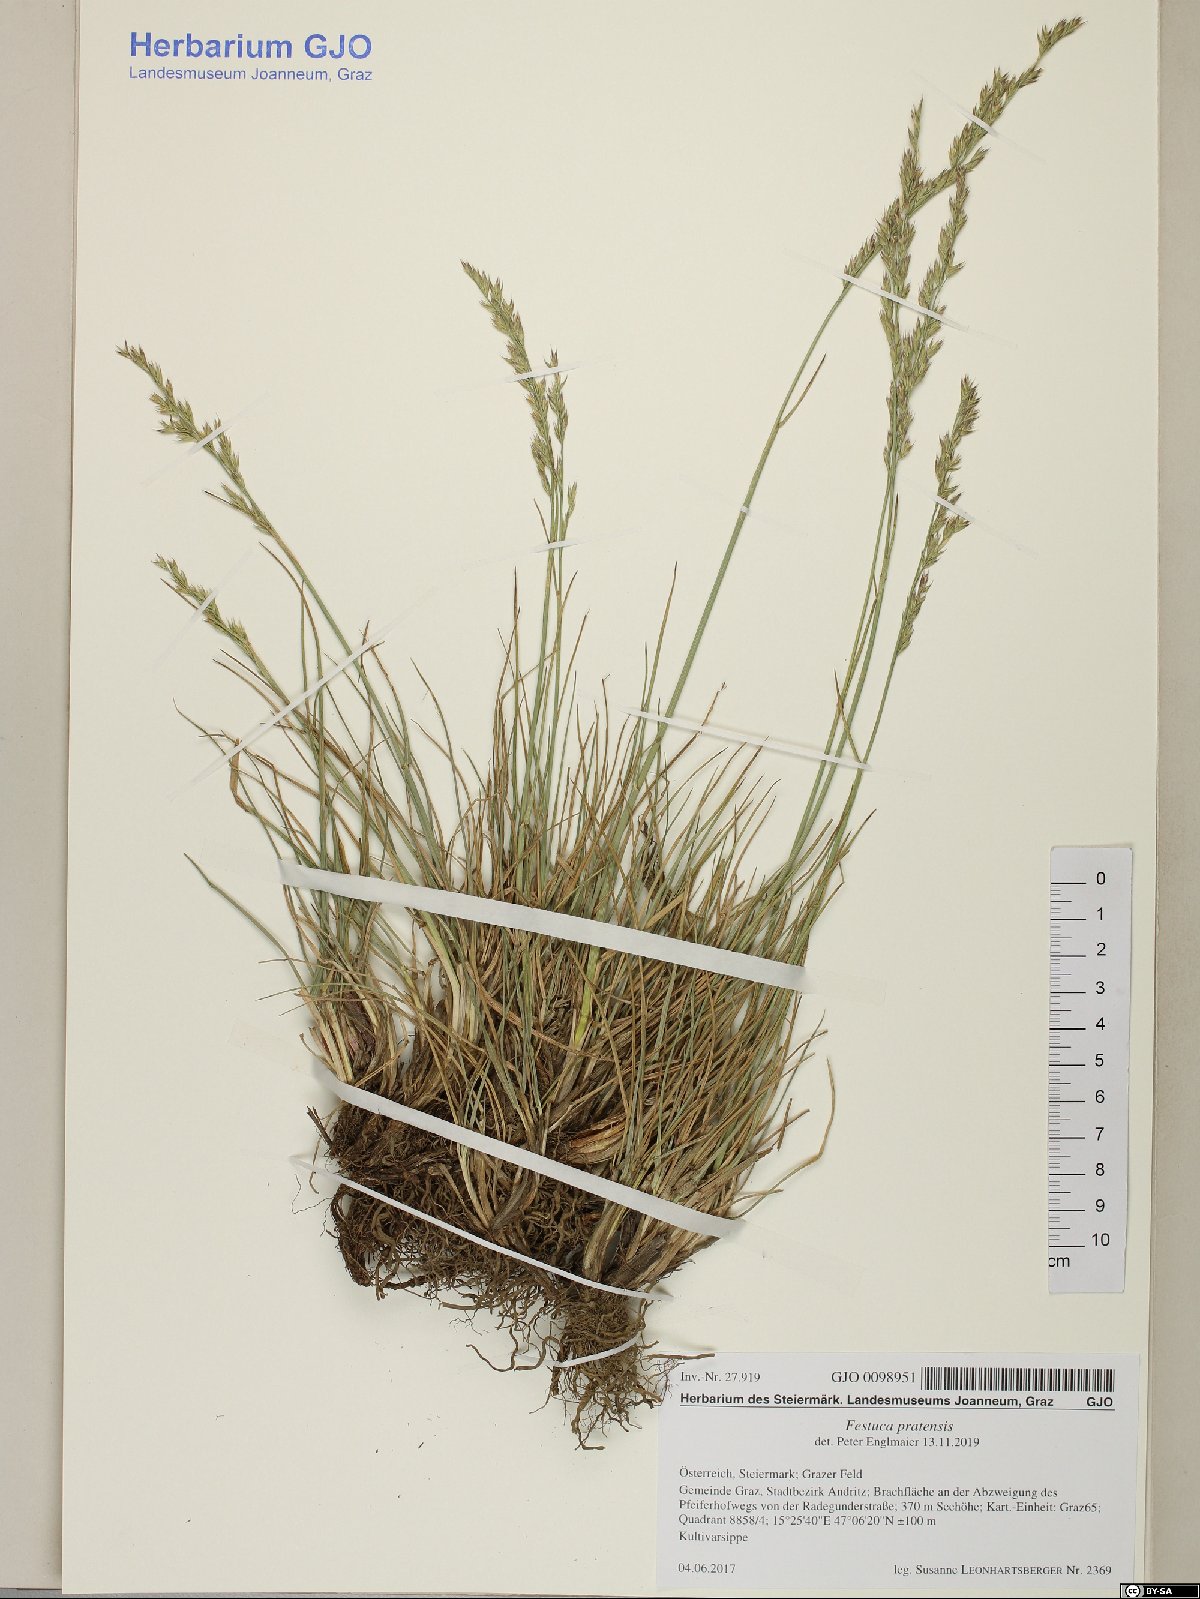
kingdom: Plantae
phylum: Tracheophyta
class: Liliopsida
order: Poales
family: Poaceae
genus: Lolium
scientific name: Lolium pratense
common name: Dover grass
